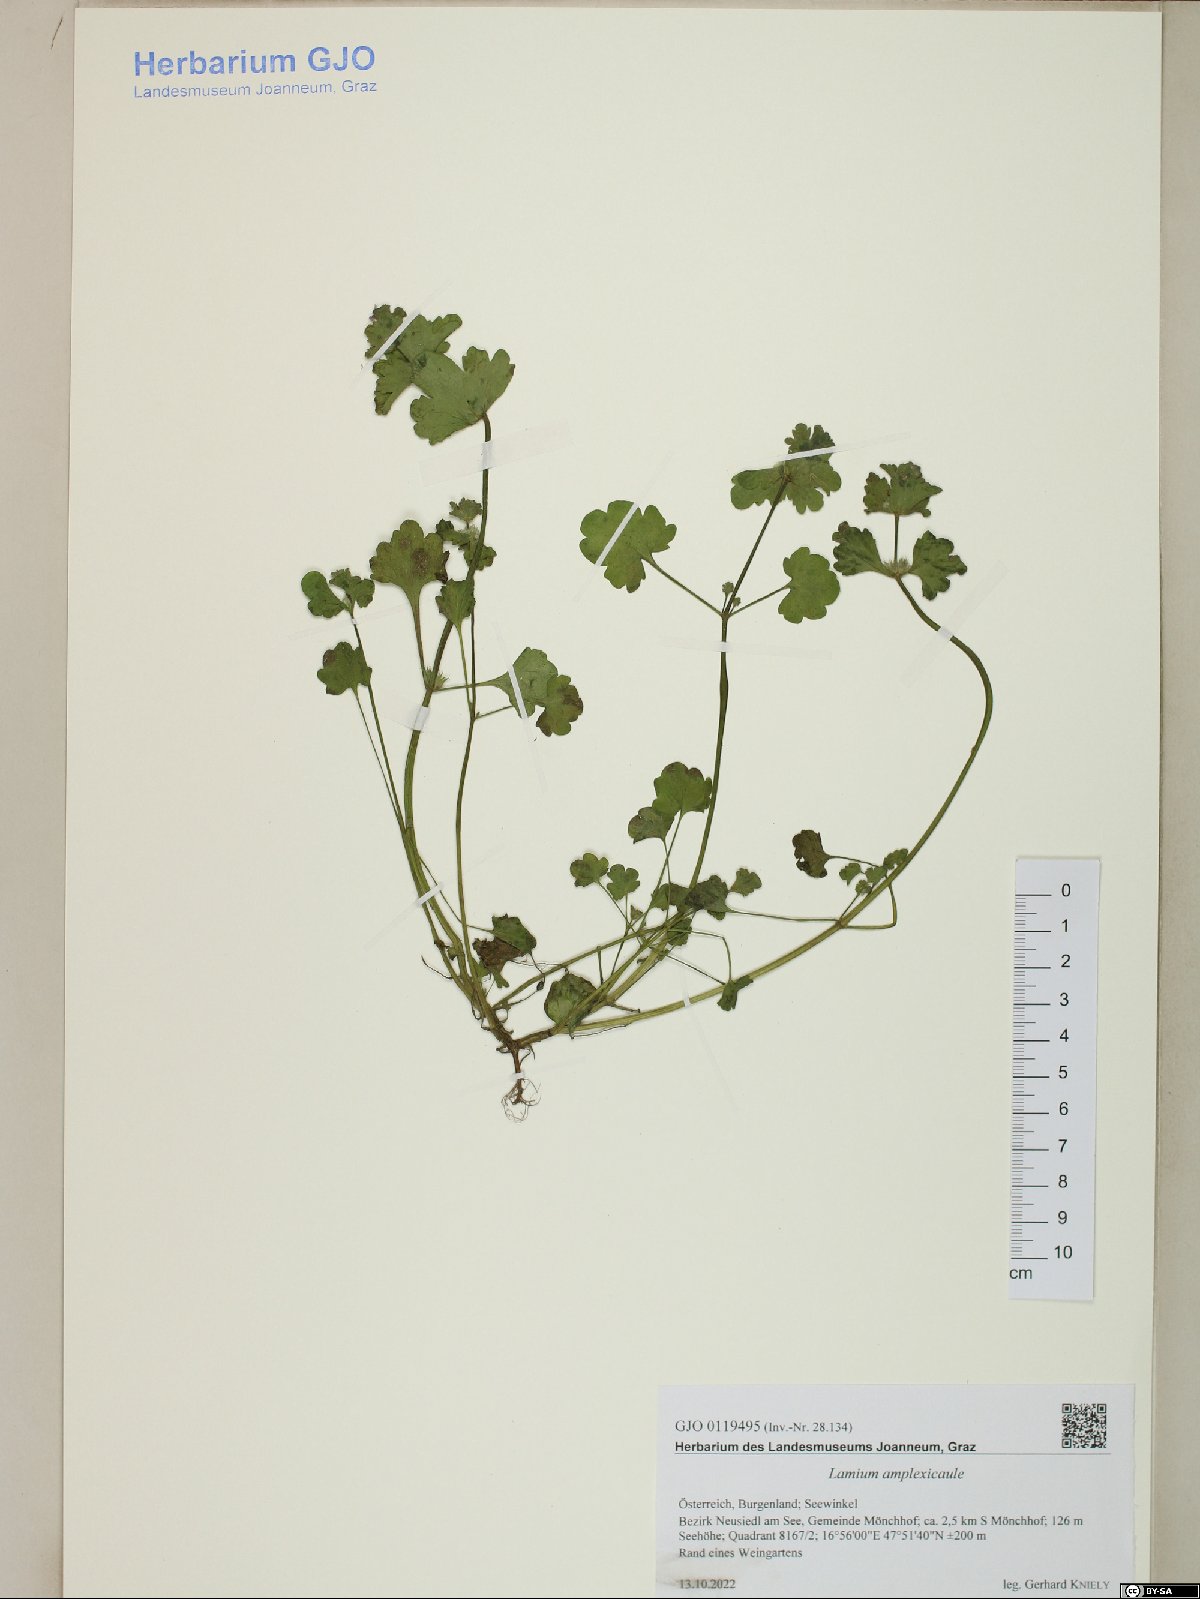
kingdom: Plantae
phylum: Tracheophyta
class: Magnoliopsida
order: Lamiales
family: Lamiaceae
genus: Lamium
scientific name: Lamium amplexicaule
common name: Henbit dead-nettle
